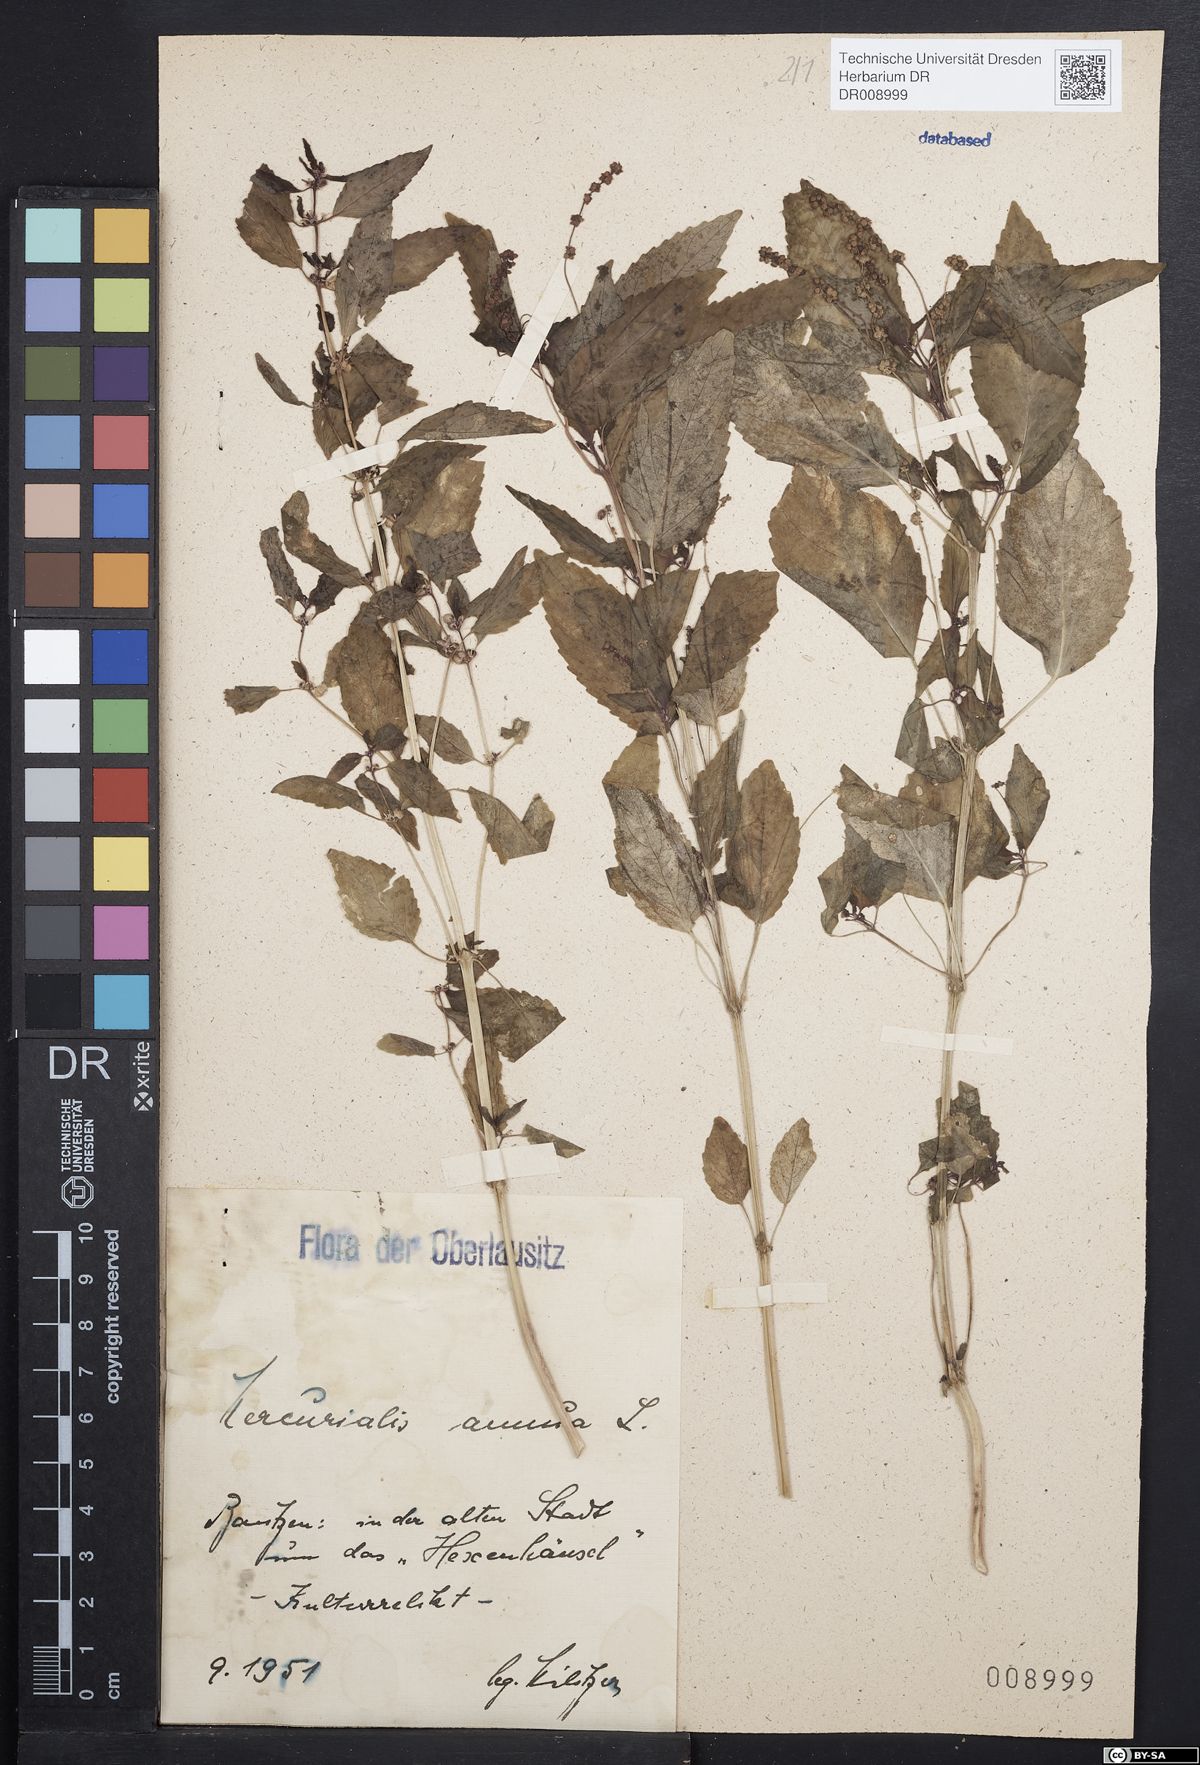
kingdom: Plantae
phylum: Tracheophyta
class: Magnoliopsida
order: Malpighiales
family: Euphorbiaceae
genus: Mercurialis
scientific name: Mercurialis annua
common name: Annual mercury
